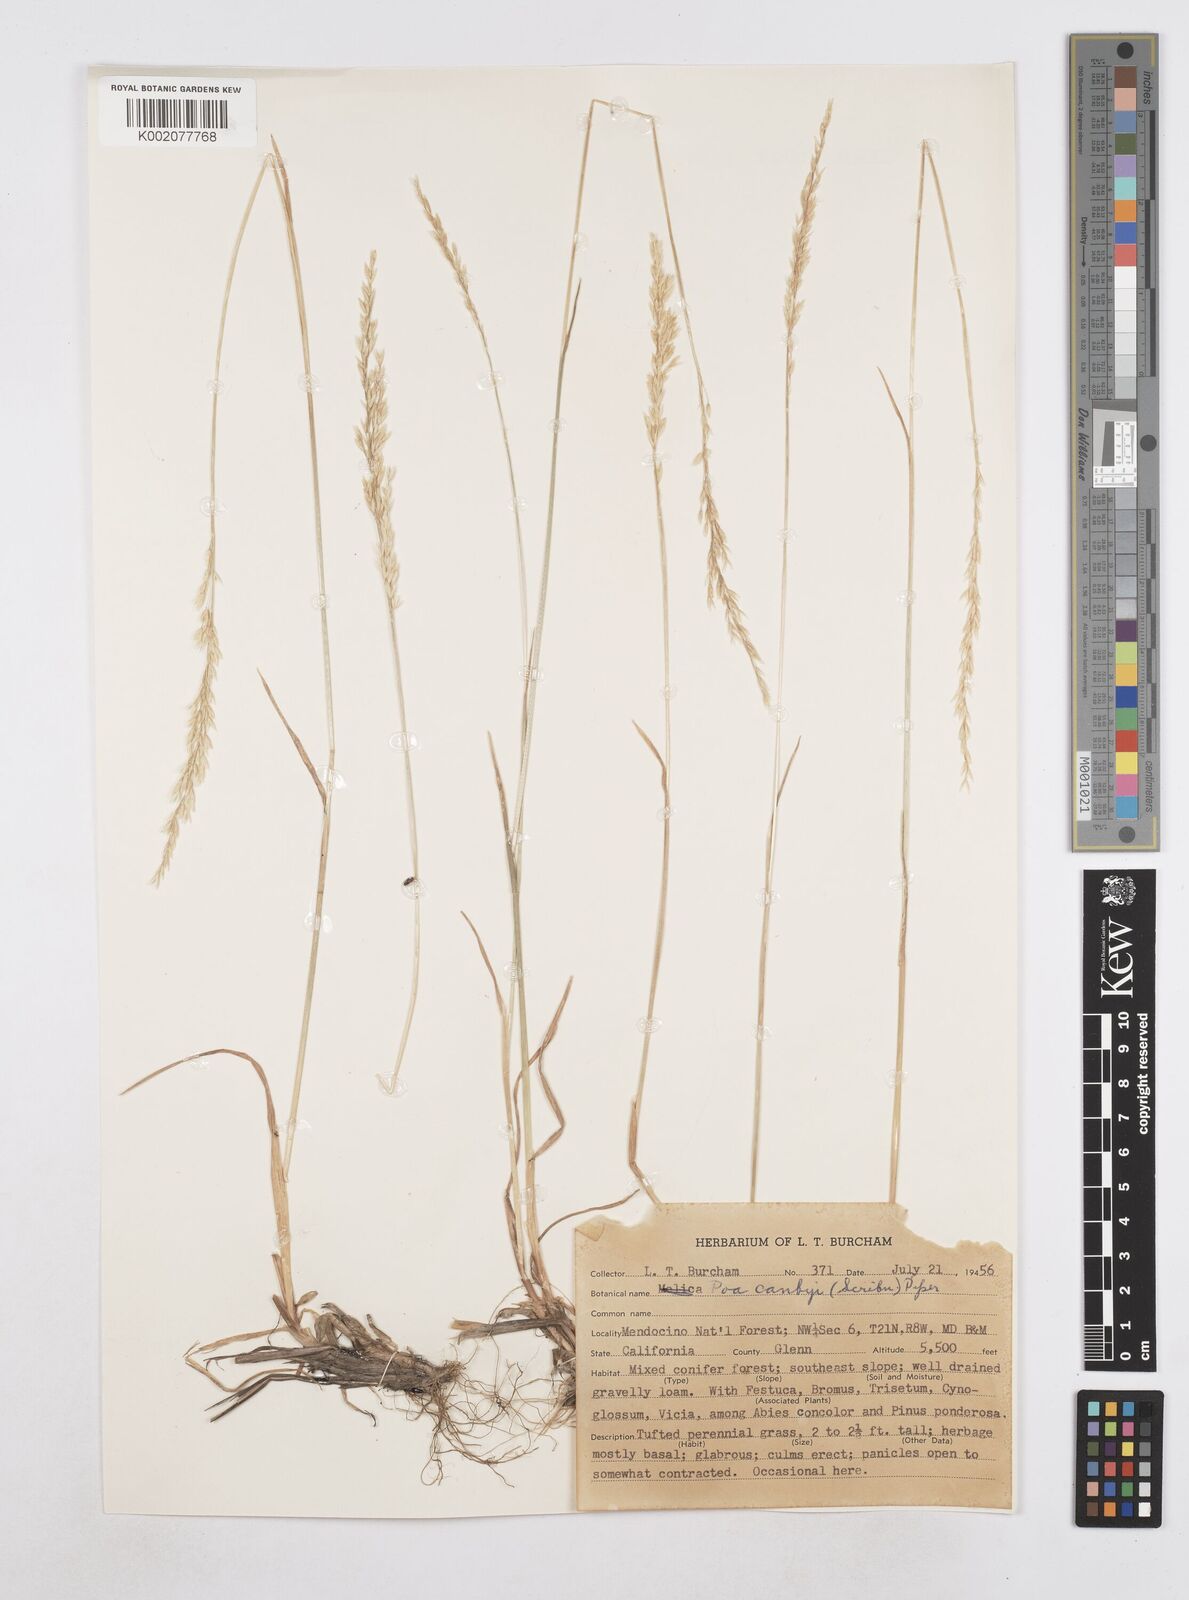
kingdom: Plantae
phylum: Tracheophyta
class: Liliopsida
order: Poales
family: Poaceae
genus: Poa
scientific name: Poa secunda
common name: Sandberg bluegrass
